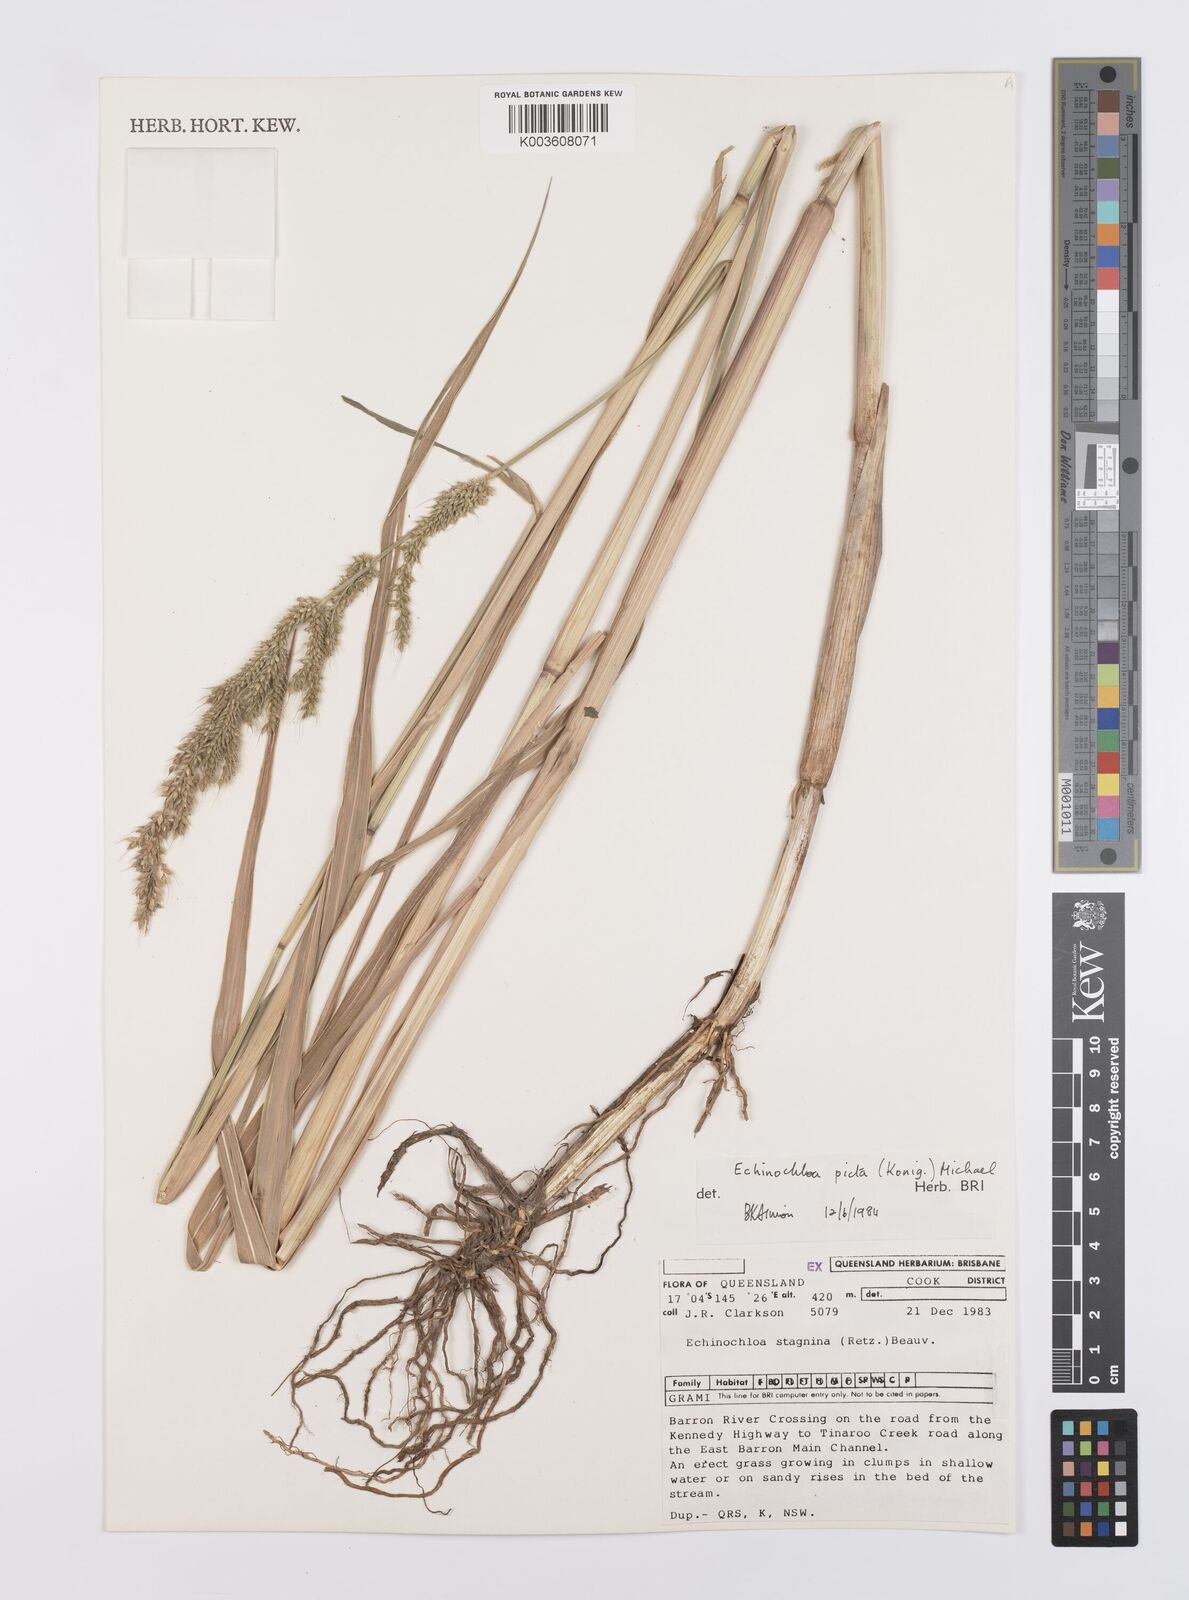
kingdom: Plantae
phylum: Tracheophyta
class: Liliopsida
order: Poales
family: Poaceae
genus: Echinochloa
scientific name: Echinochloa picta
